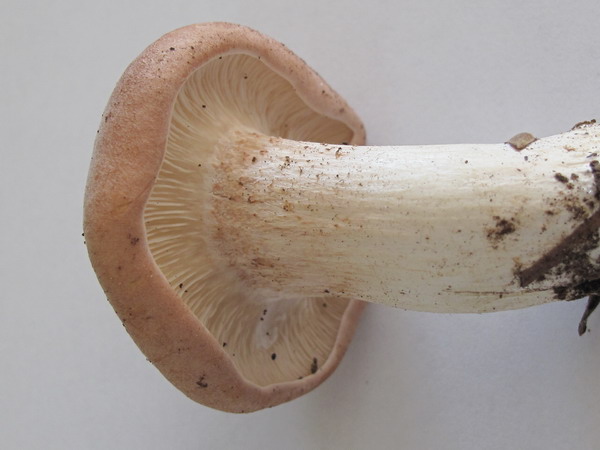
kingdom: Fungi
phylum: Basidiomycota
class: Agaricomycetes
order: Agaricales
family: Entolomataceae
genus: Clitopilus
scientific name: Clitopilus geminus
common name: kødfarvet troldhat
